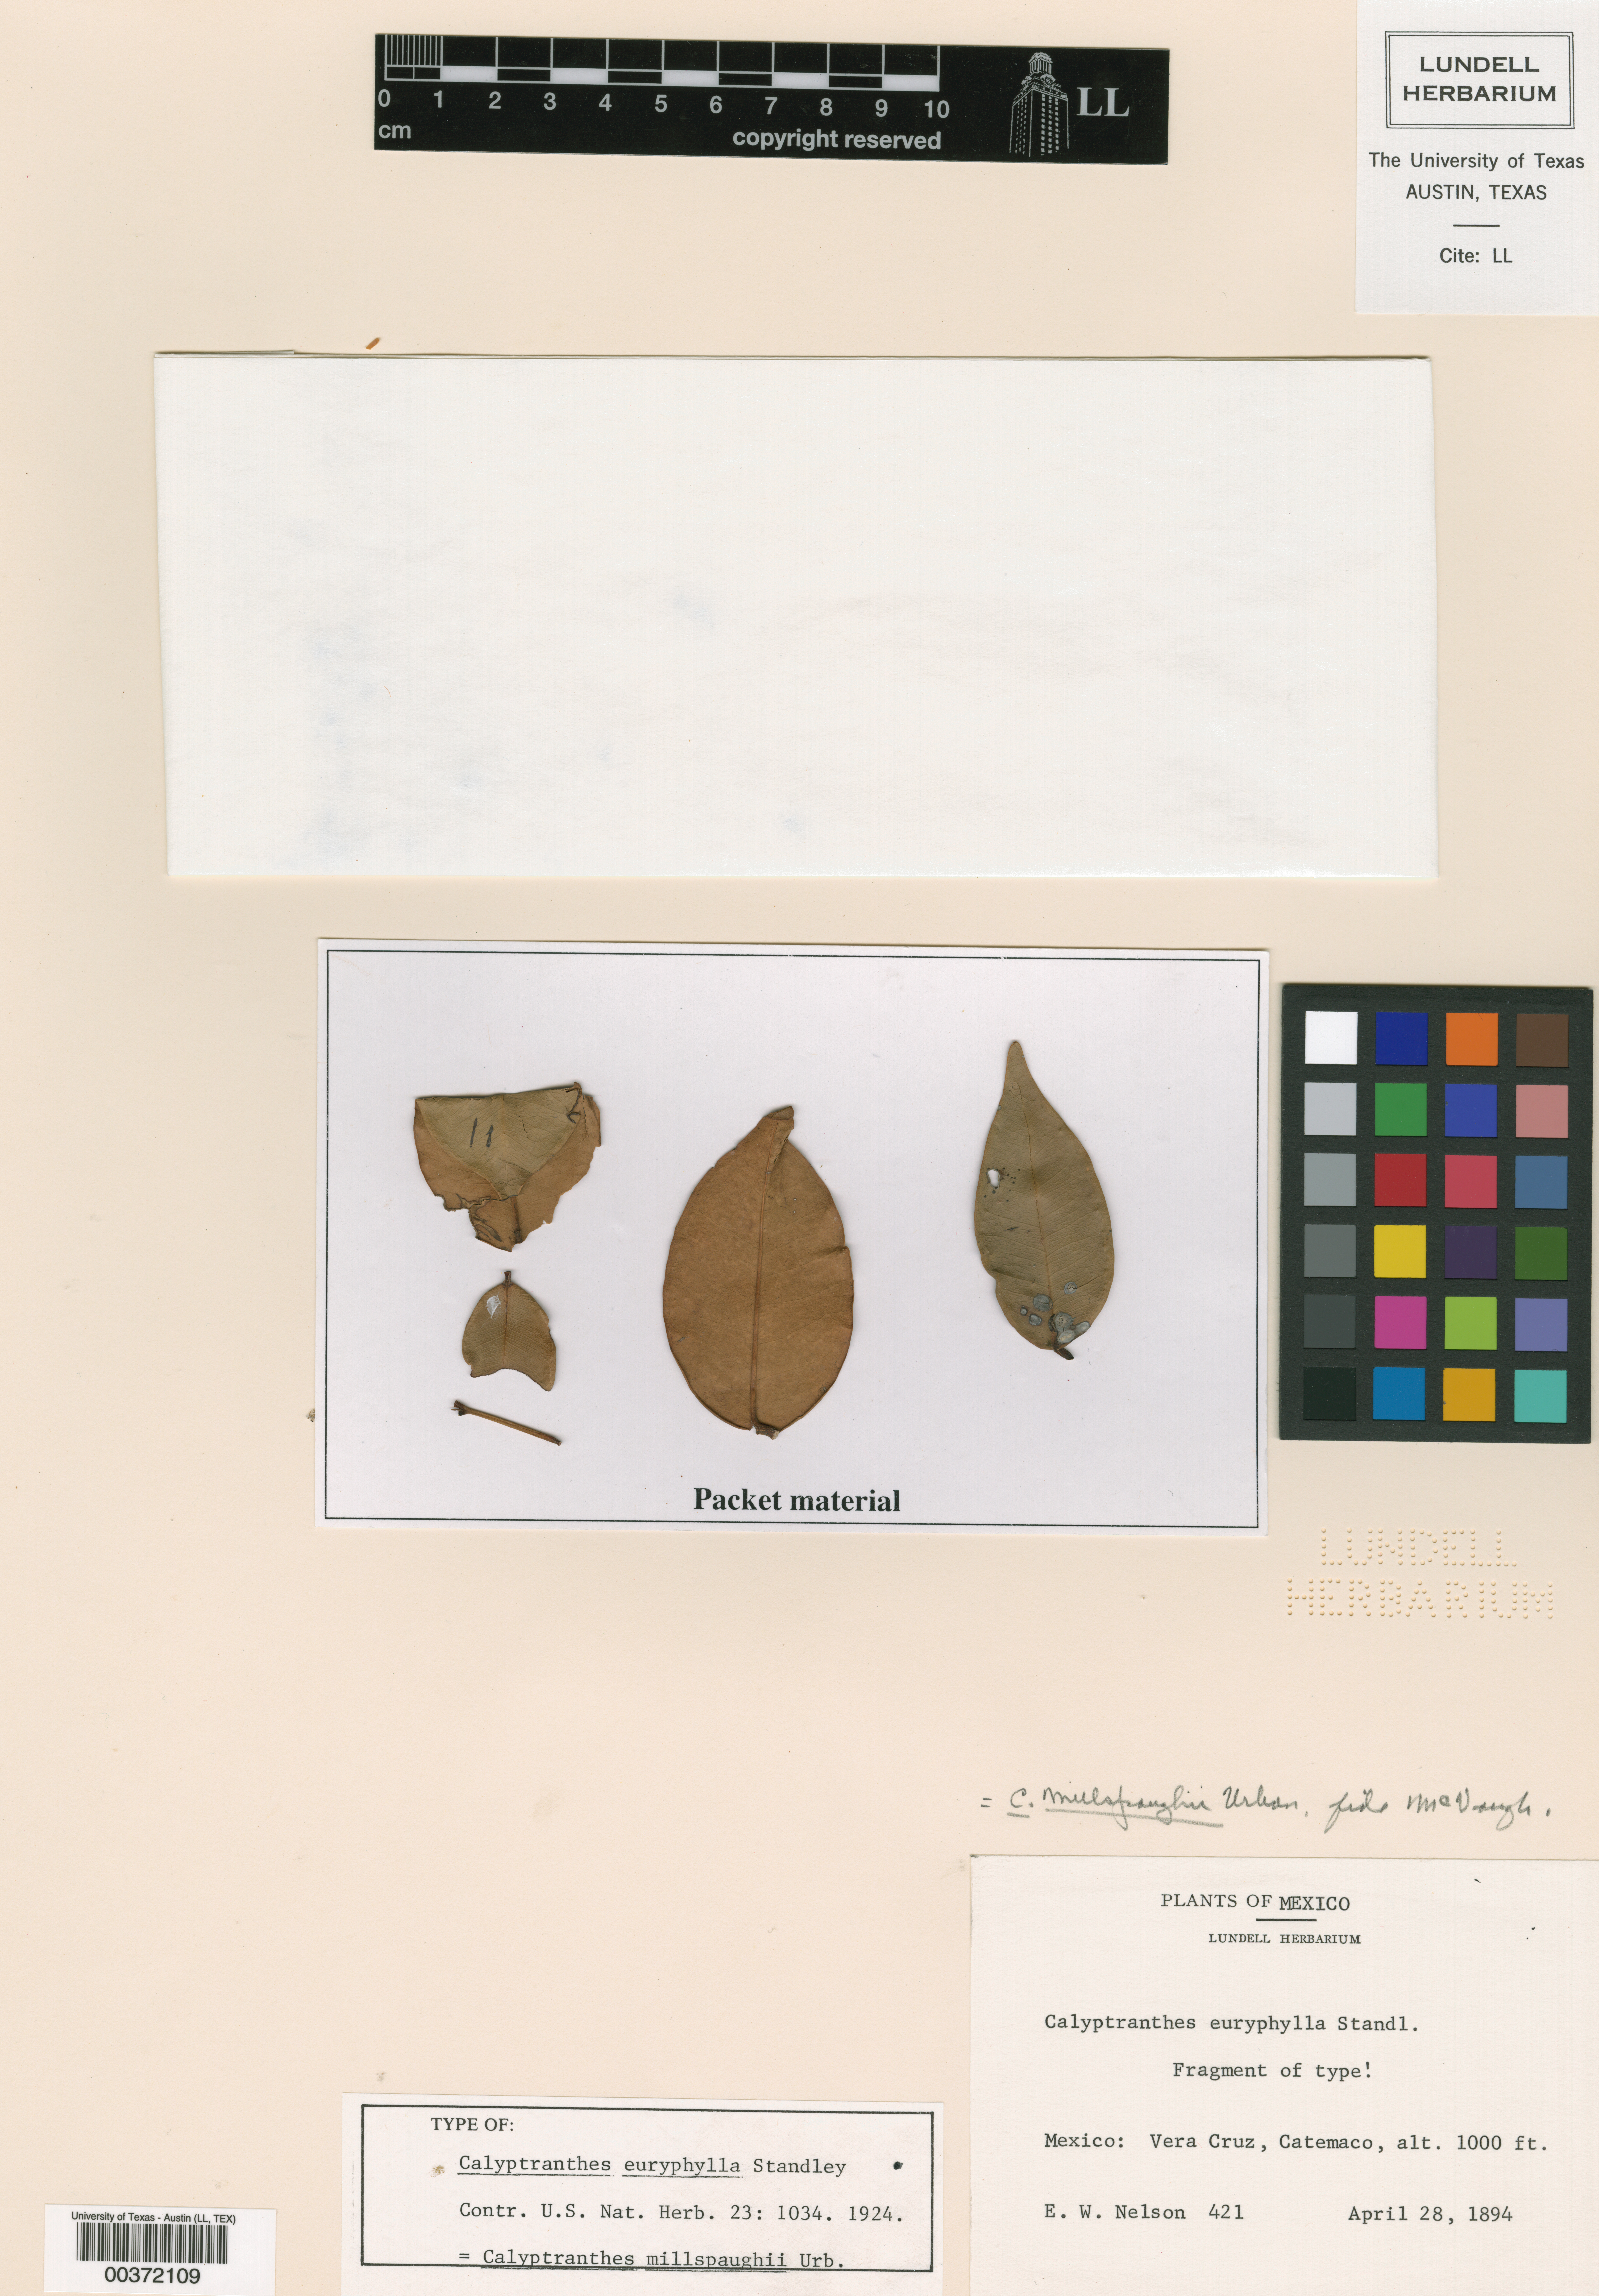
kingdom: Plantae
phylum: Tracheophyta
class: Magnoliopsida
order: Myrtales
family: Myrtaceae
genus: Myrcia
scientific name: Myrcia millspaughii
